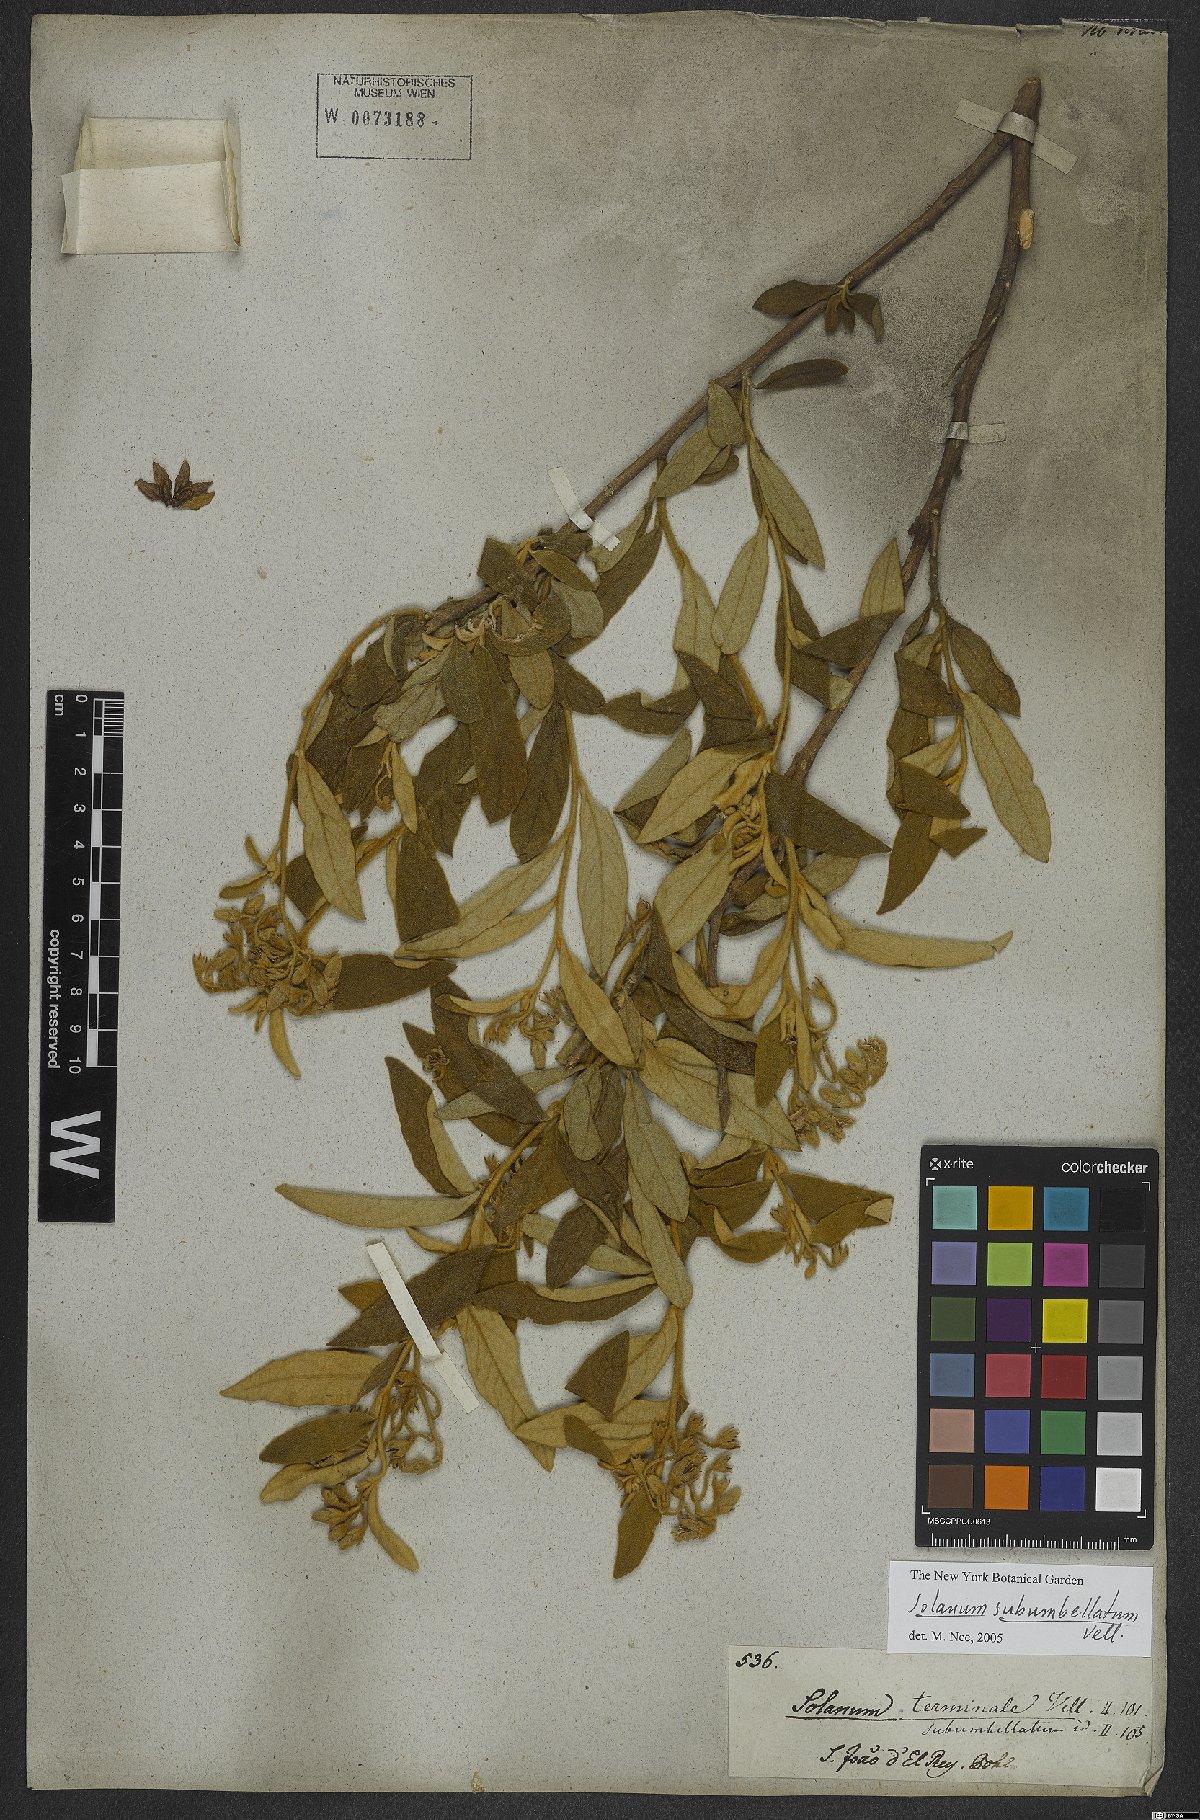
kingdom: Plantae
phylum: Tracheophyta
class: Magnoliopsida
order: Solanales
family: Solanaceae
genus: Solanum
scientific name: Solanum sublentum
